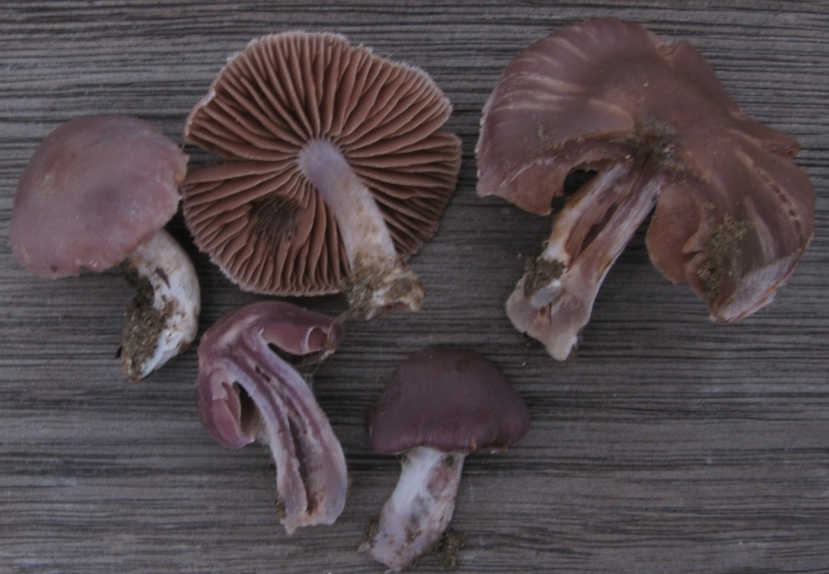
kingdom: Fungi
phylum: Basidiomycota
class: Agaricomycetes
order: Agaricales
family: Cortinariaceae
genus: Cortinarius
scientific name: Cortinarius serratissimus
